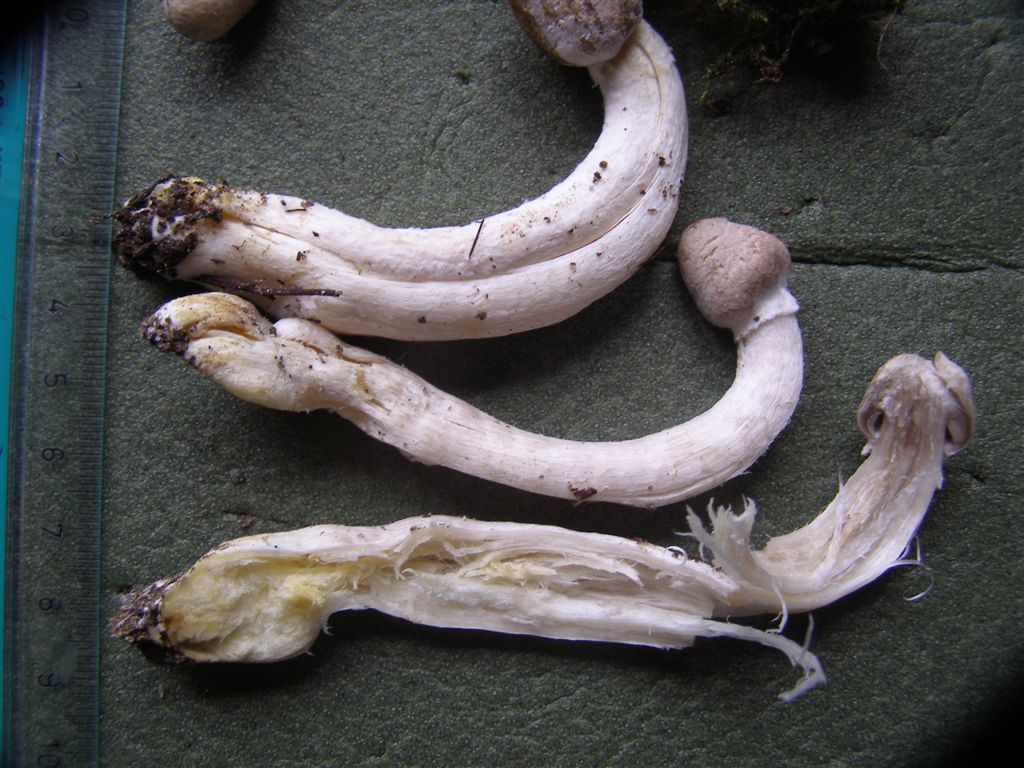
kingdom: Fungi
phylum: Basidiomycota
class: Agaricomycetes
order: Agaricales
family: Tricholomataceae
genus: Tricholoma
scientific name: Tricholoma cingulatum
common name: ring-ridderhat
